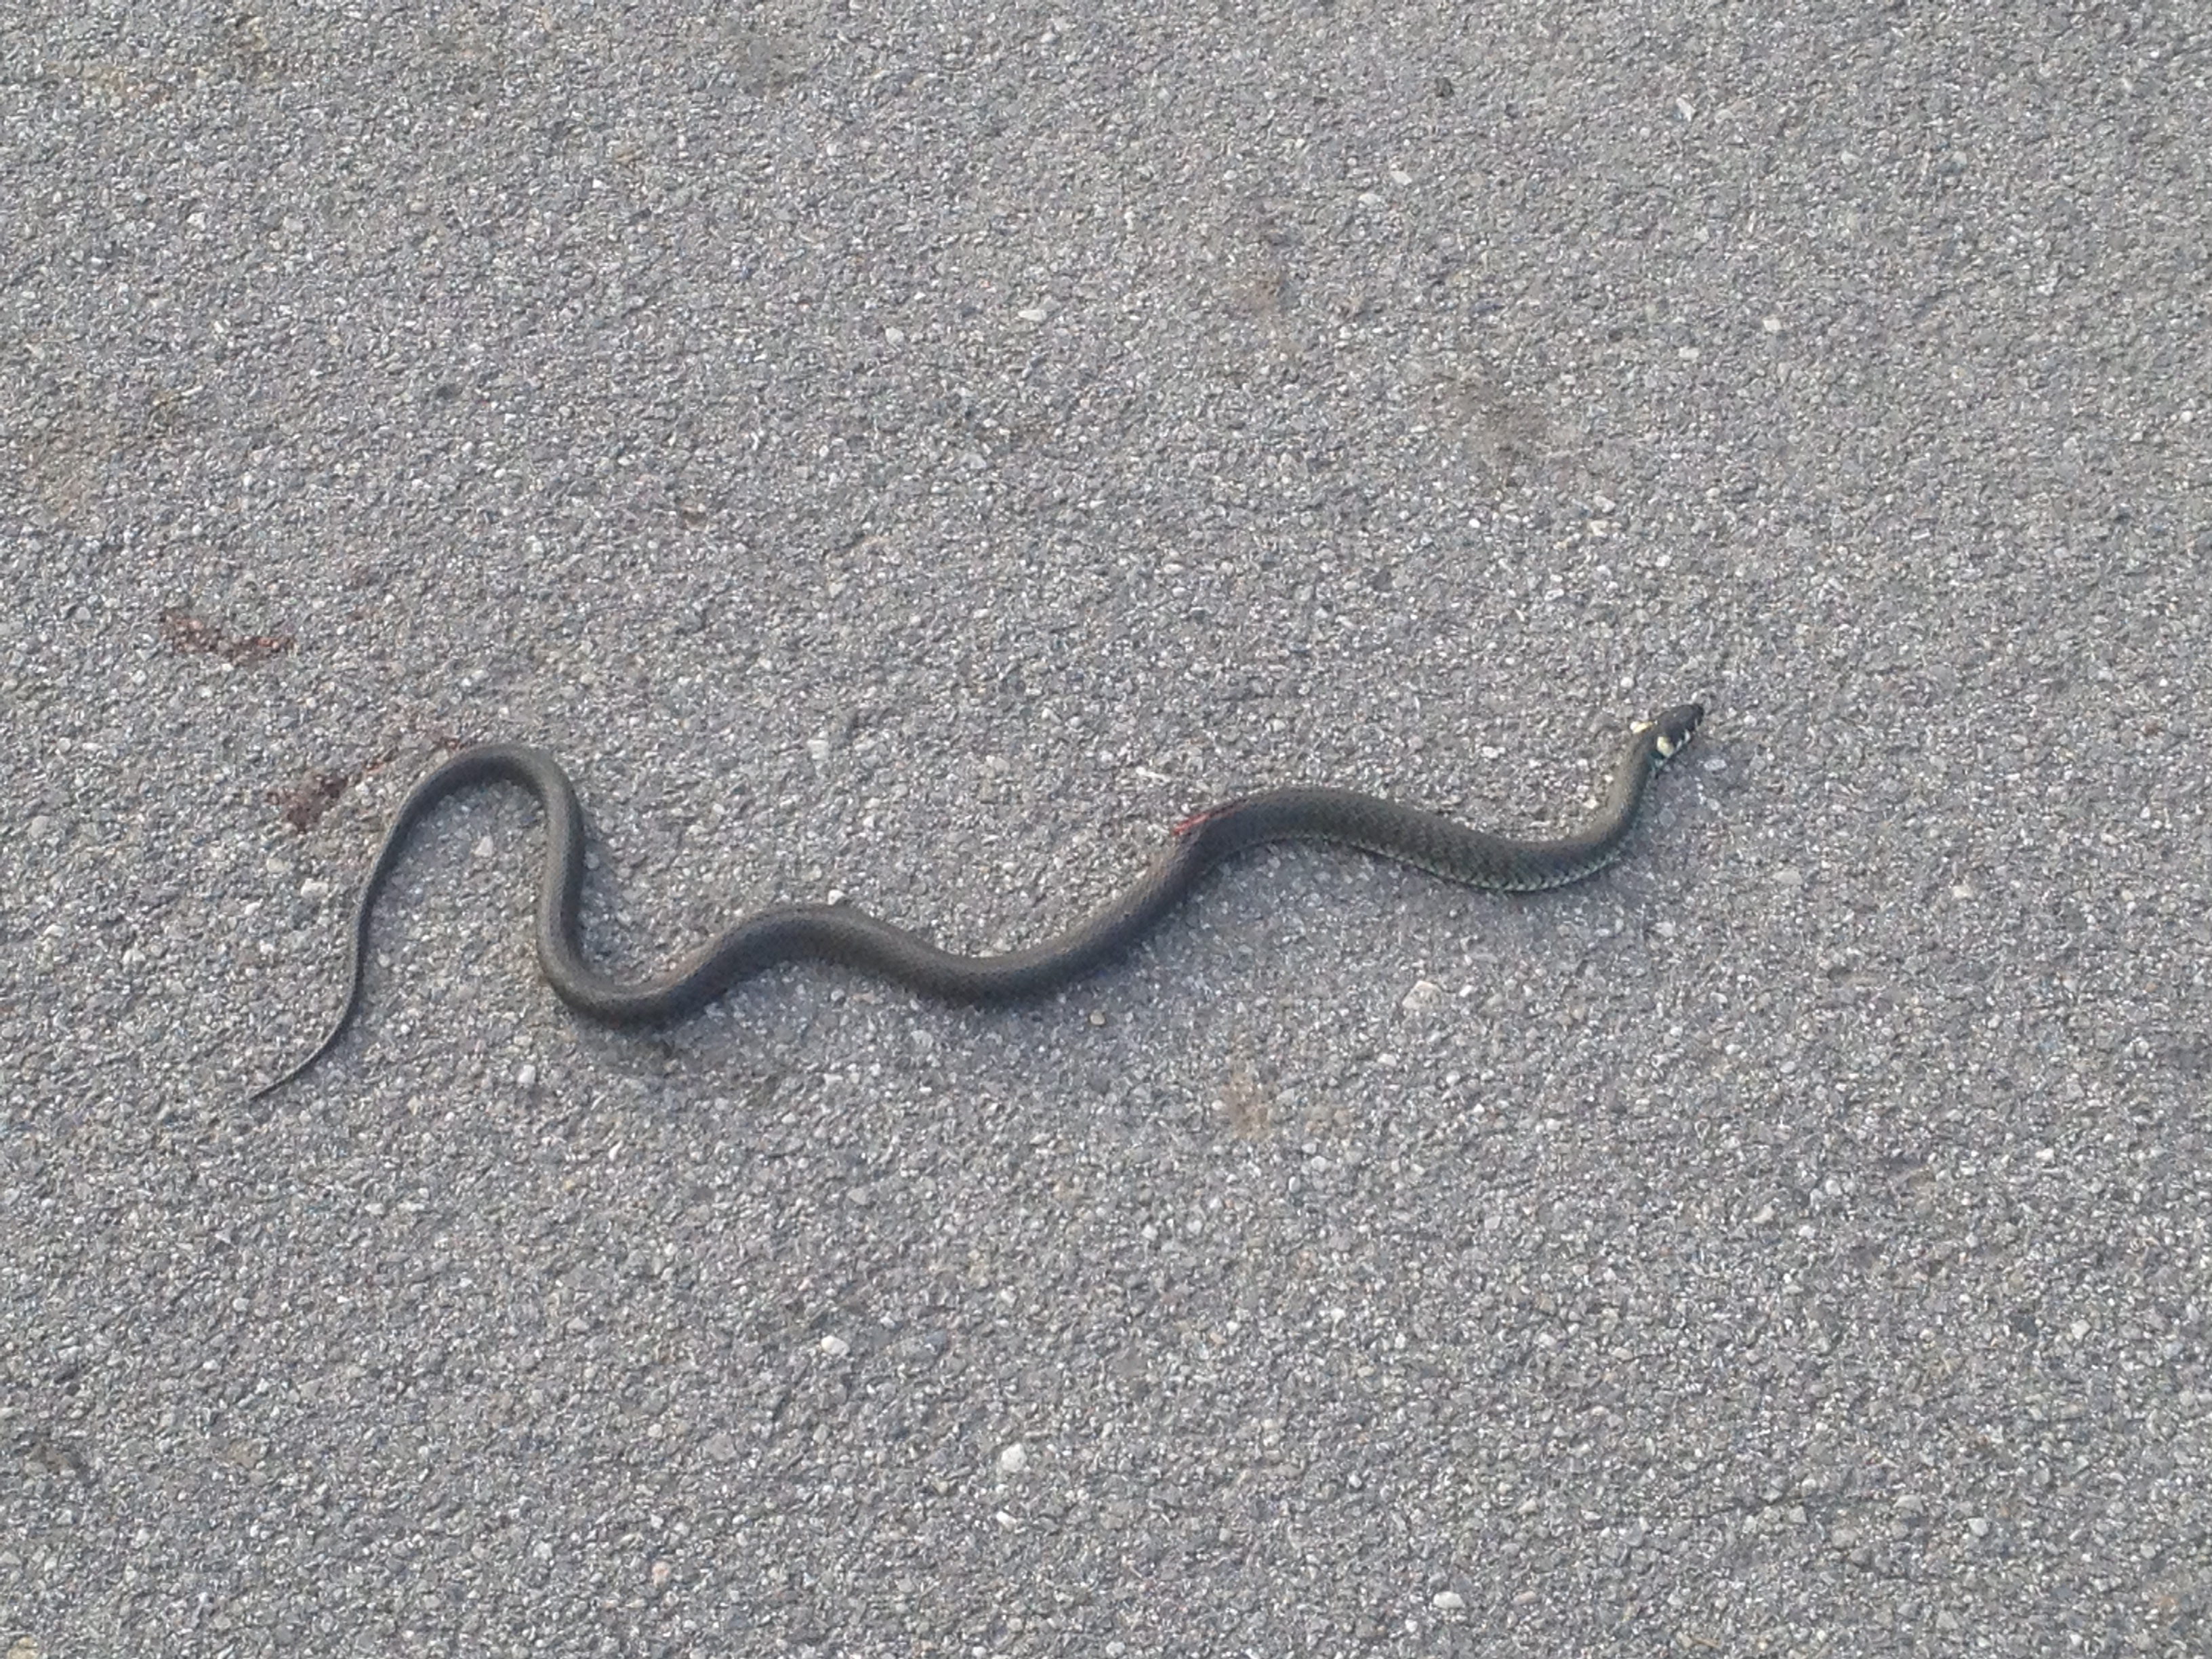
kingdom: Animalia
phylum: Chordata
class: Squamata
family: Colubridae
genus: Natrix
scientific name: Natrix natrix
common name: Grass snake
